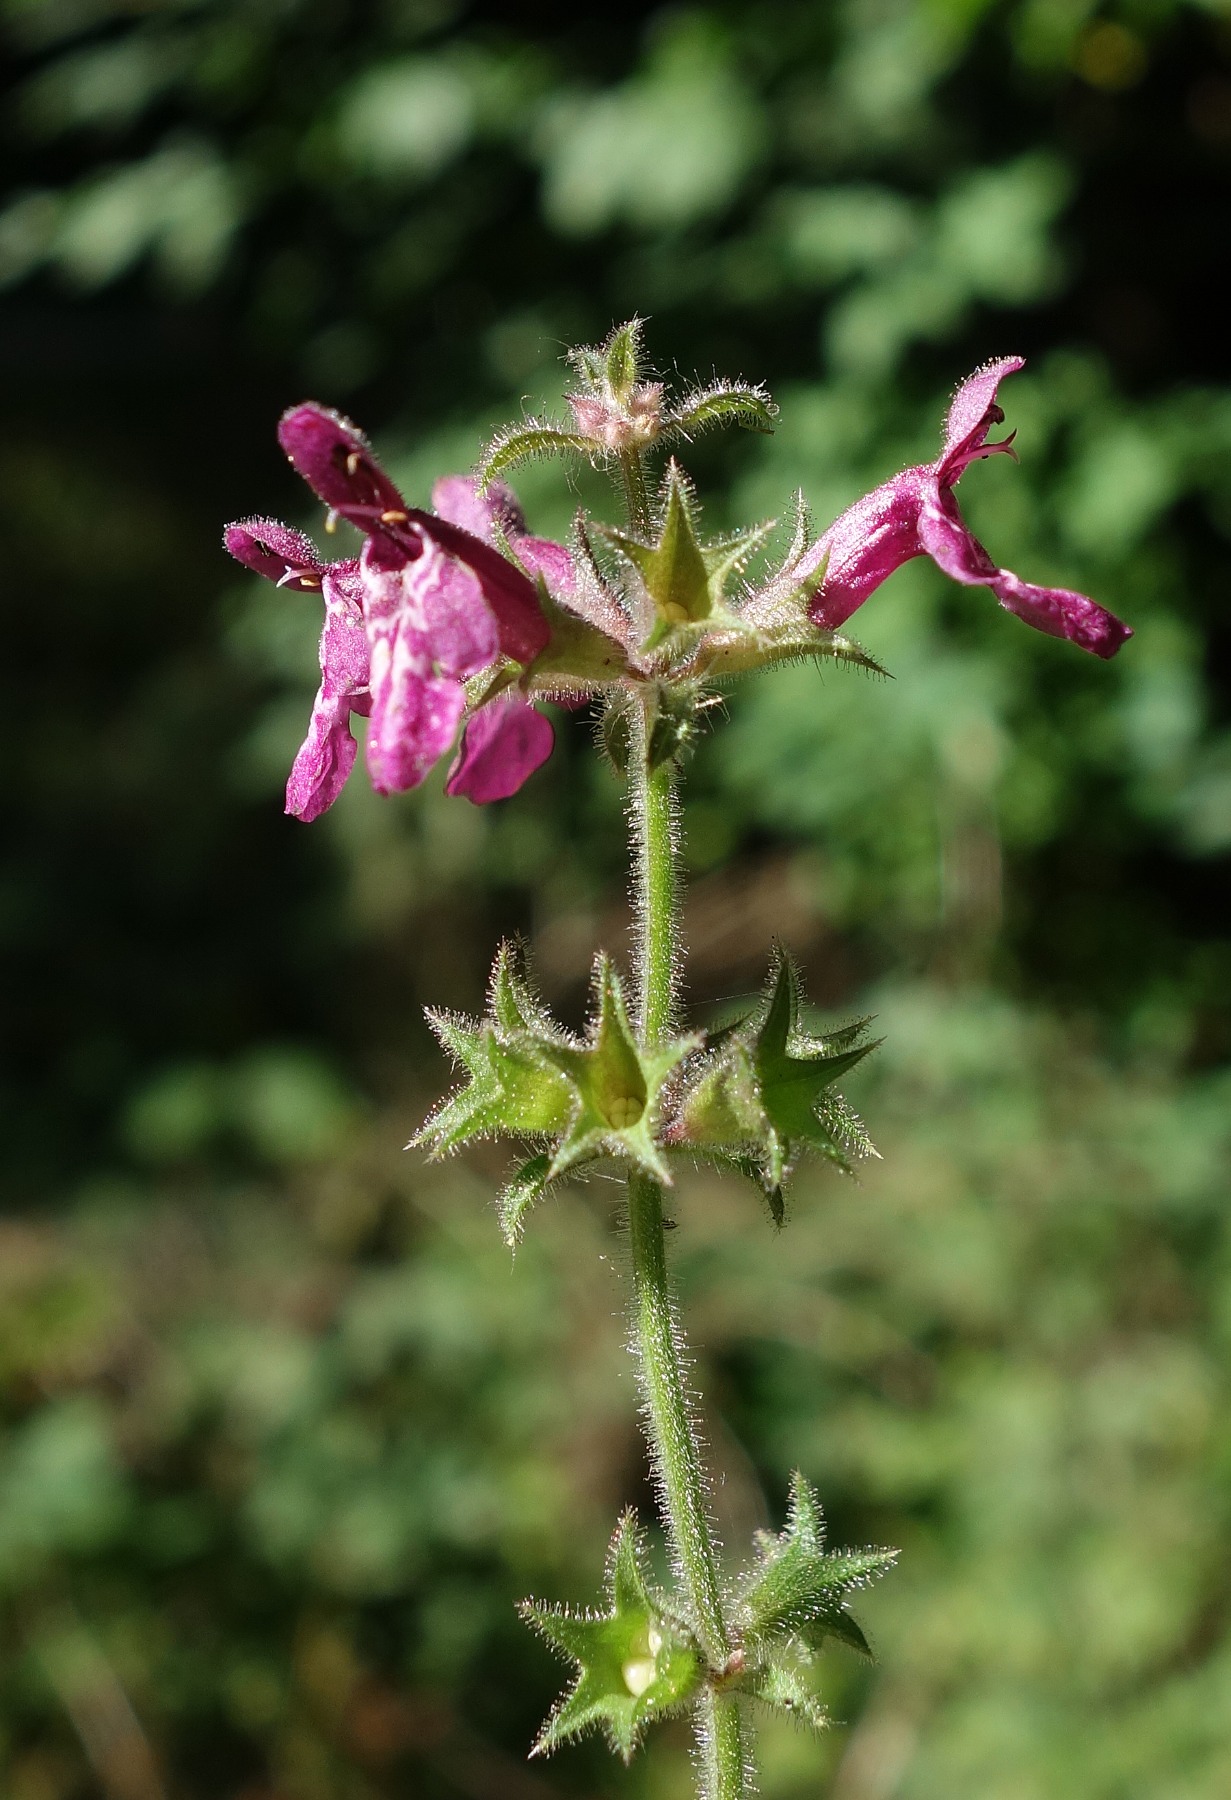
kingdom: Plantae
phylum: Tracheophyta
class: Magnoliopsida
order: Lamiales
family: Lamiaceae
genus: Stachys
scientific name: Stachys sylvatica
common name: Skov-galtetand
